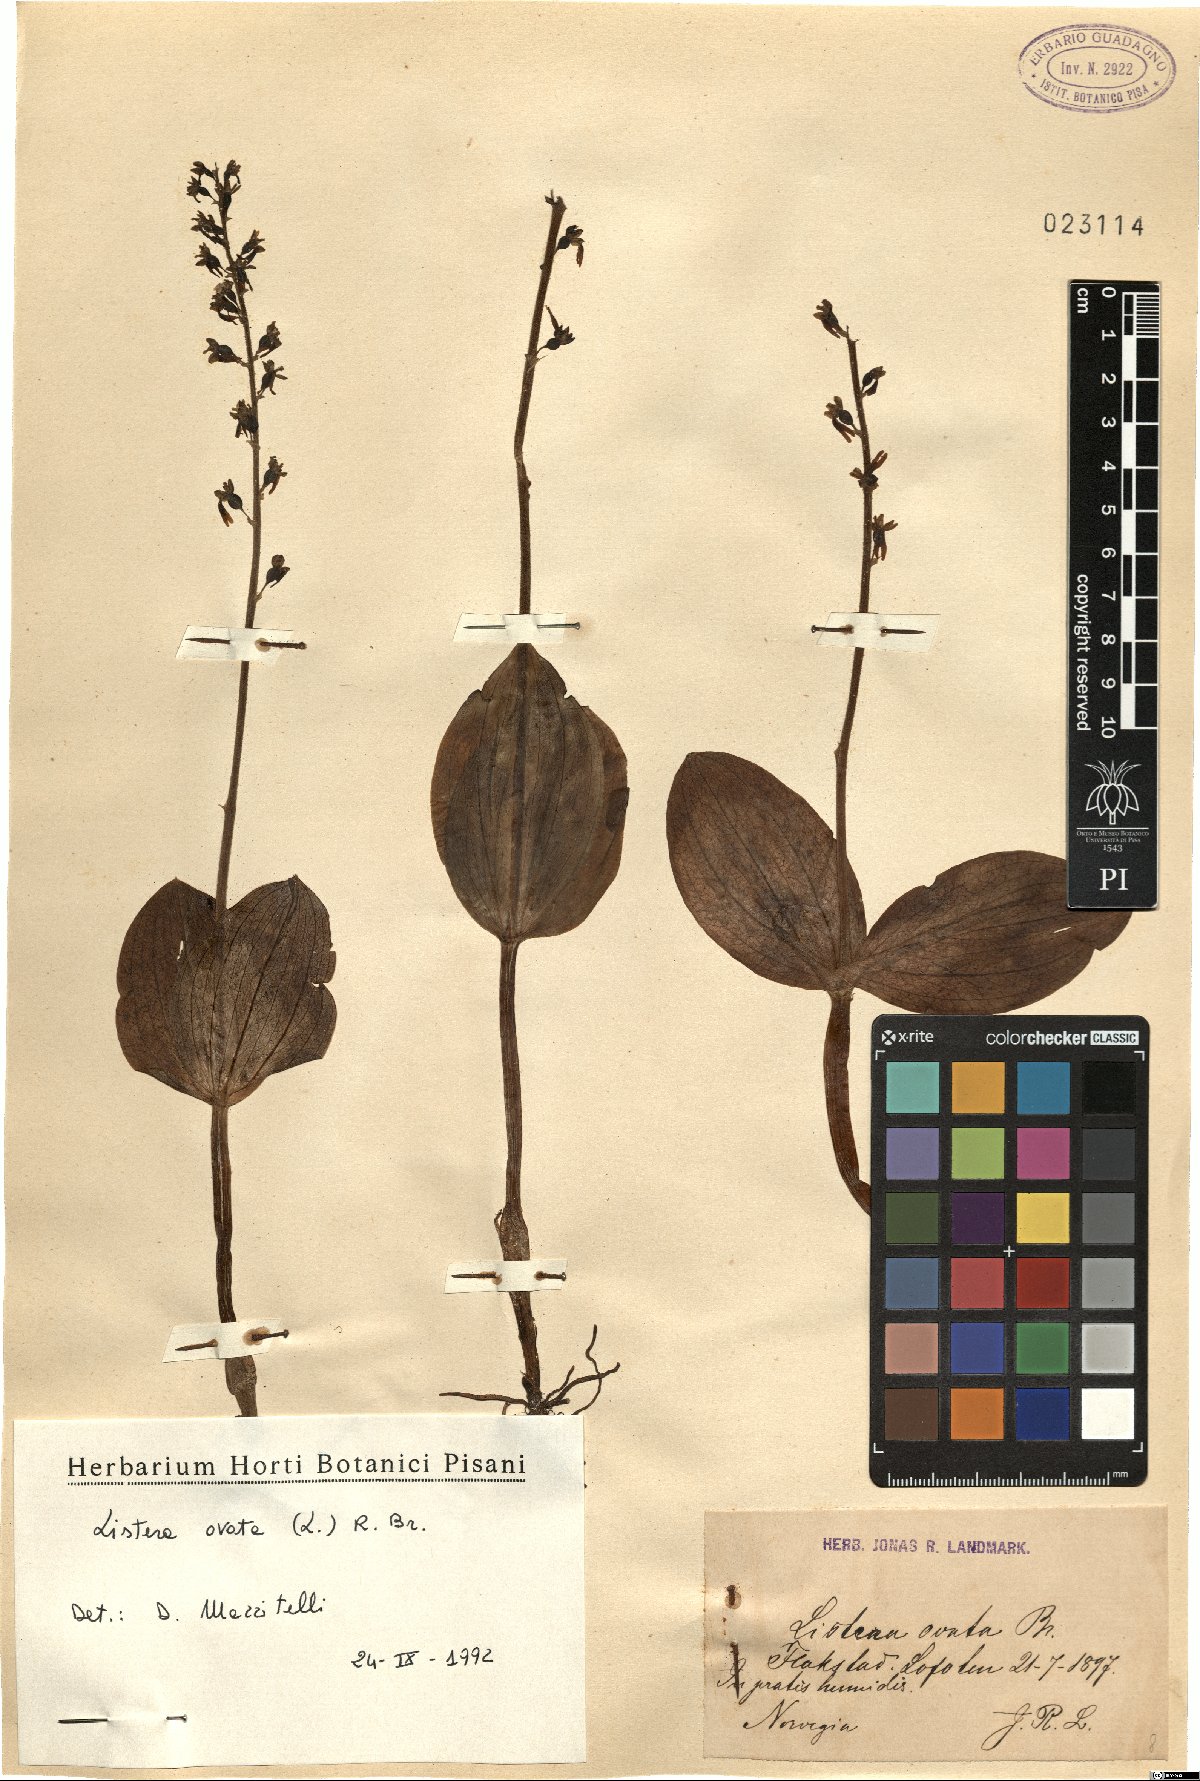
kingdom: Plantae
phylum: Tracheophyta
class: Liliopsida
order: Asparagales
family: Orchidaceae
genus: Neottia
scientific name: Neottia ovata
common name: Common twayblade
